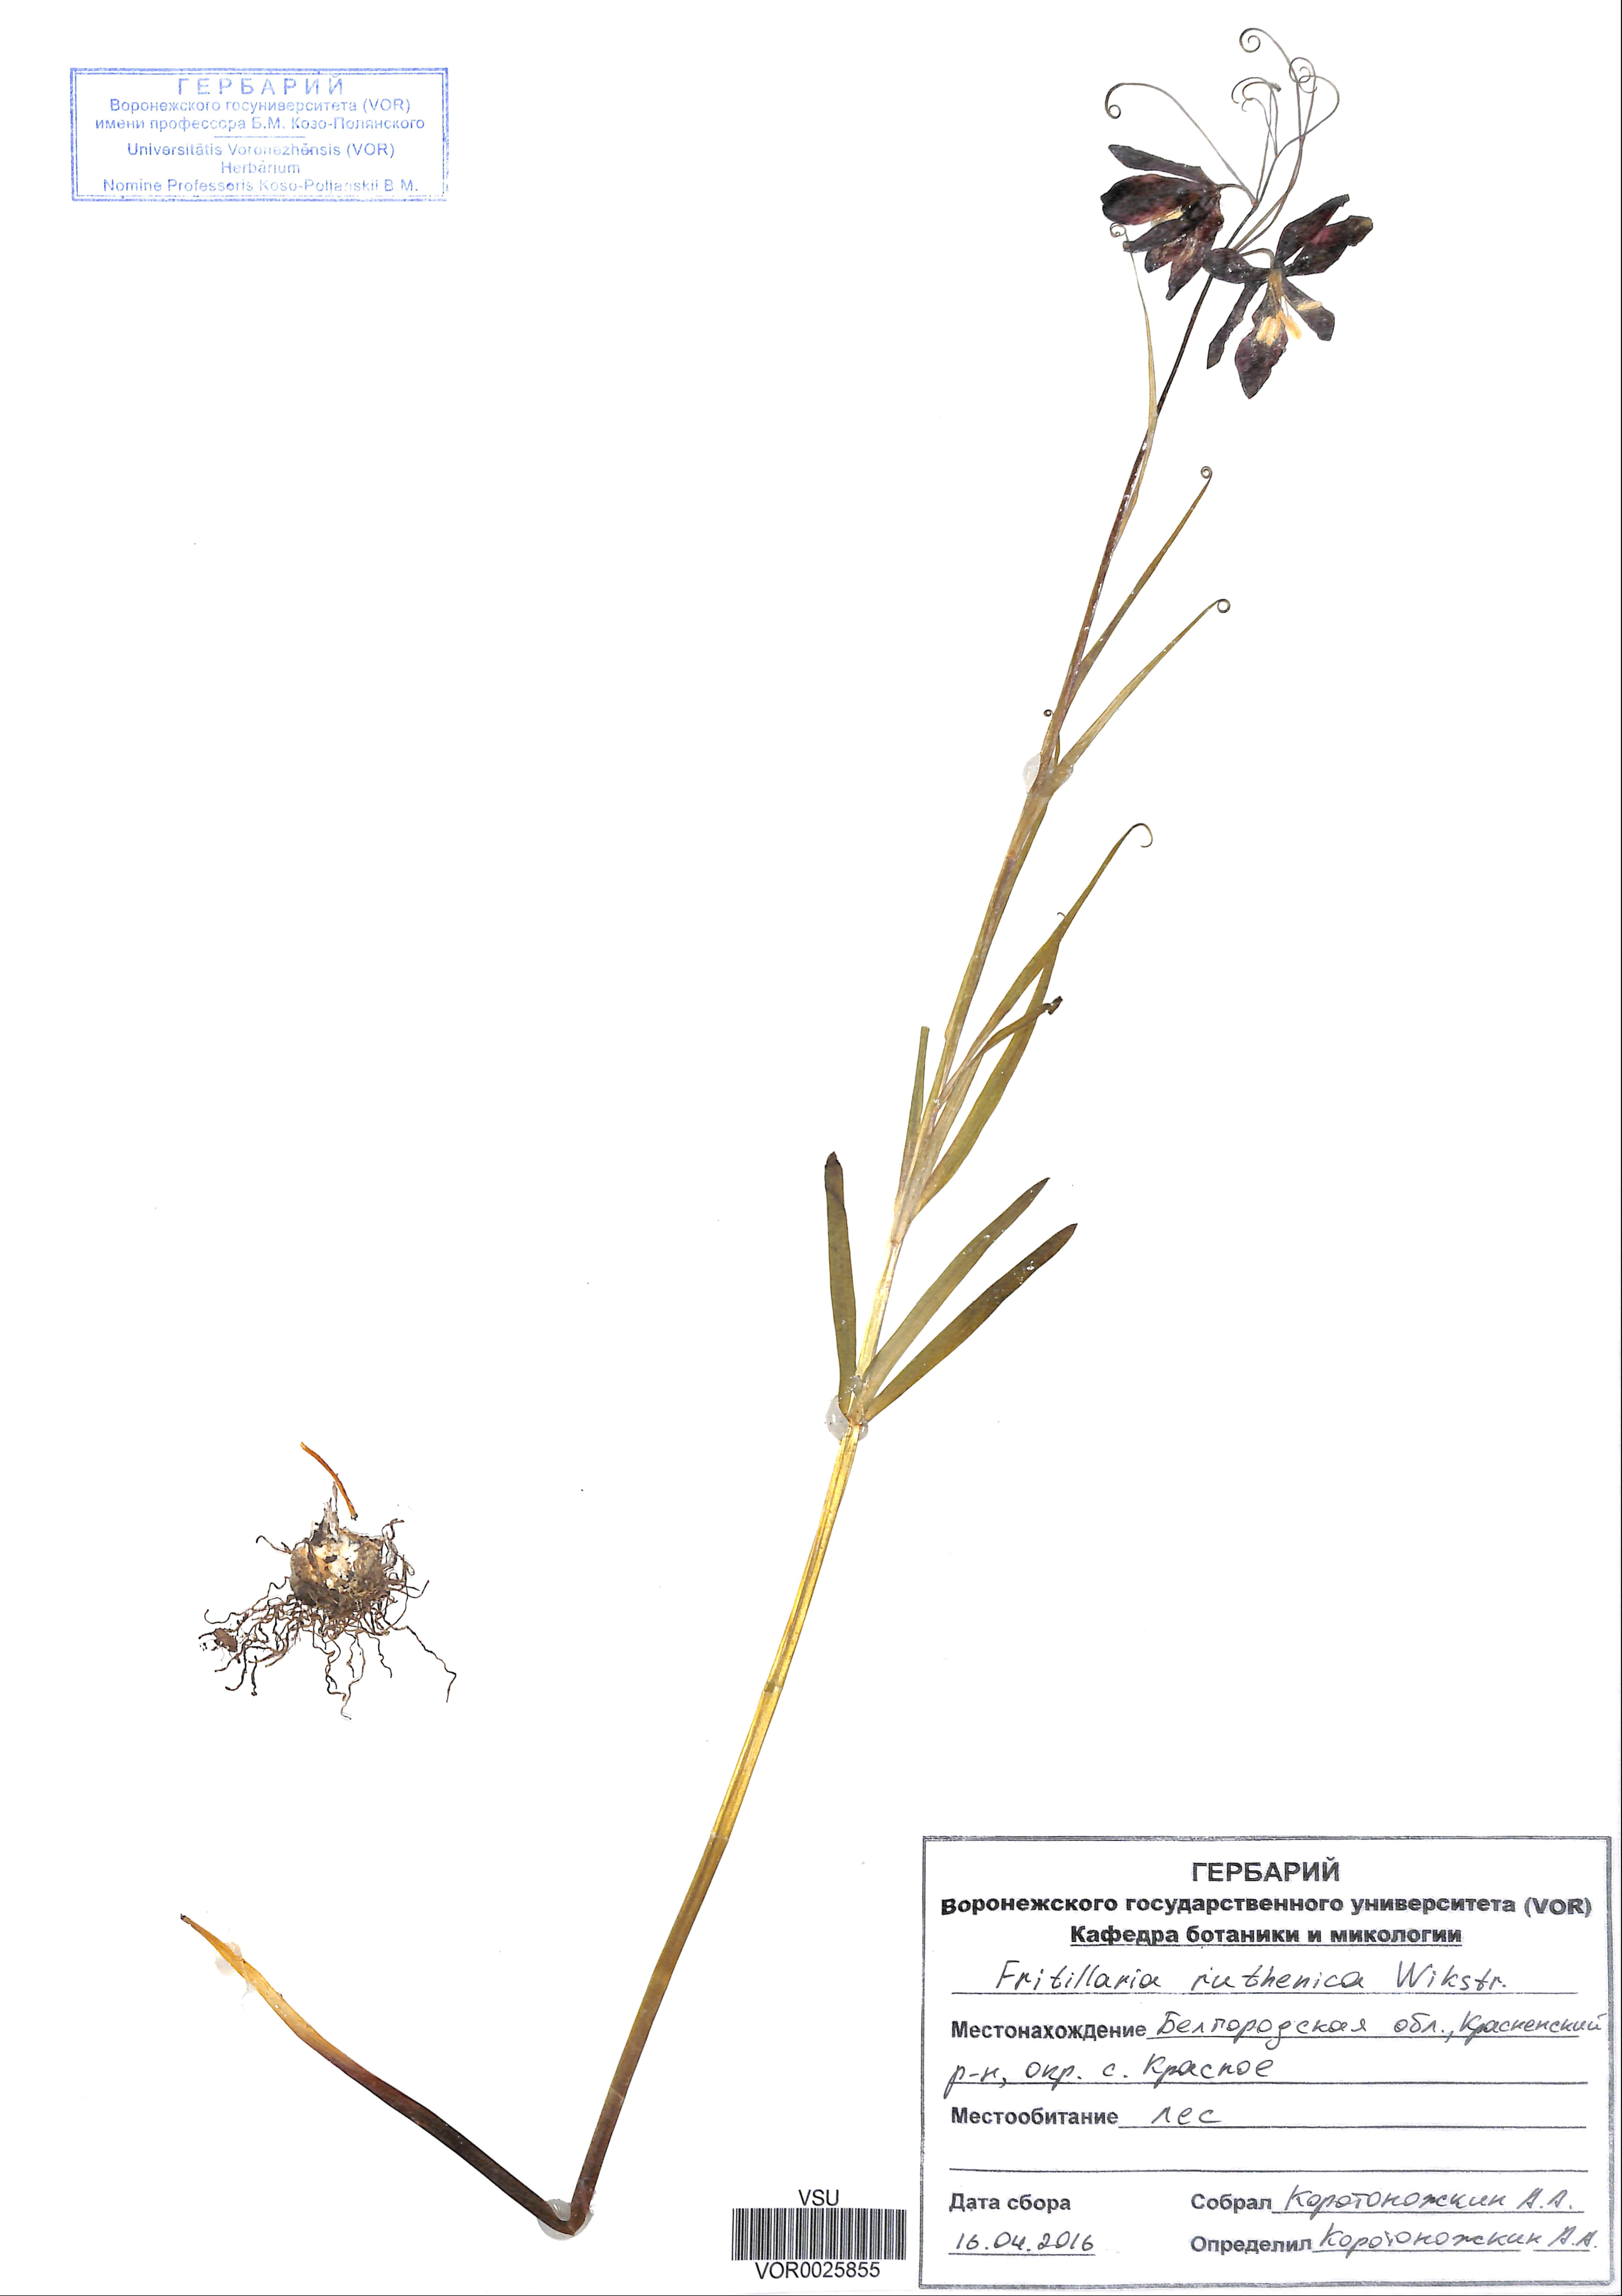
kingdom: Plantae
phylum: Tracheophyta
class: Liliopsida
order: Liliales
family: Liliaceae
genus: Fritillaria
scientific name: Fritillaria ruthenica
